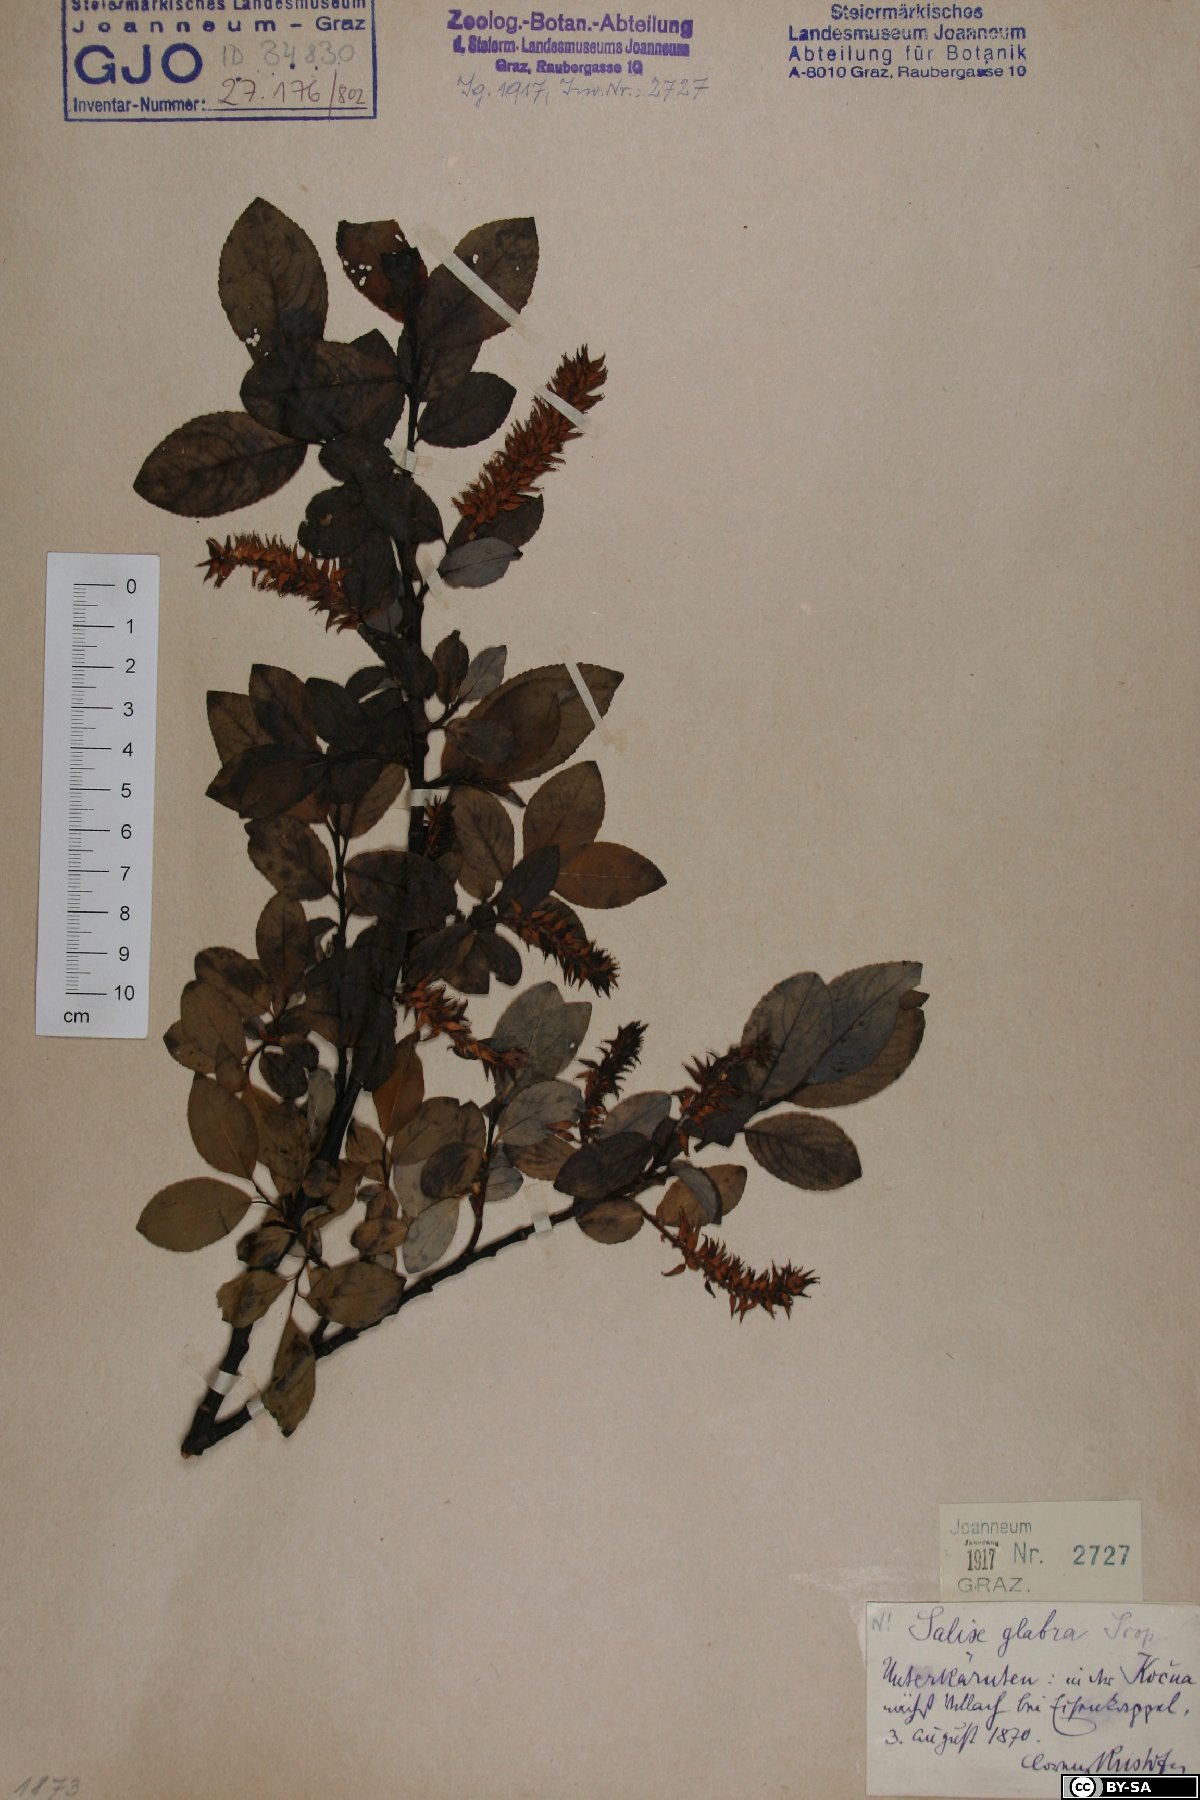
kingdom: Plantae
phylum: Tracheophyta
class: Magnoliopsida
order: Malpighiales
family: Salicaceae
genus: Salix
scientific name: Salix glabra
